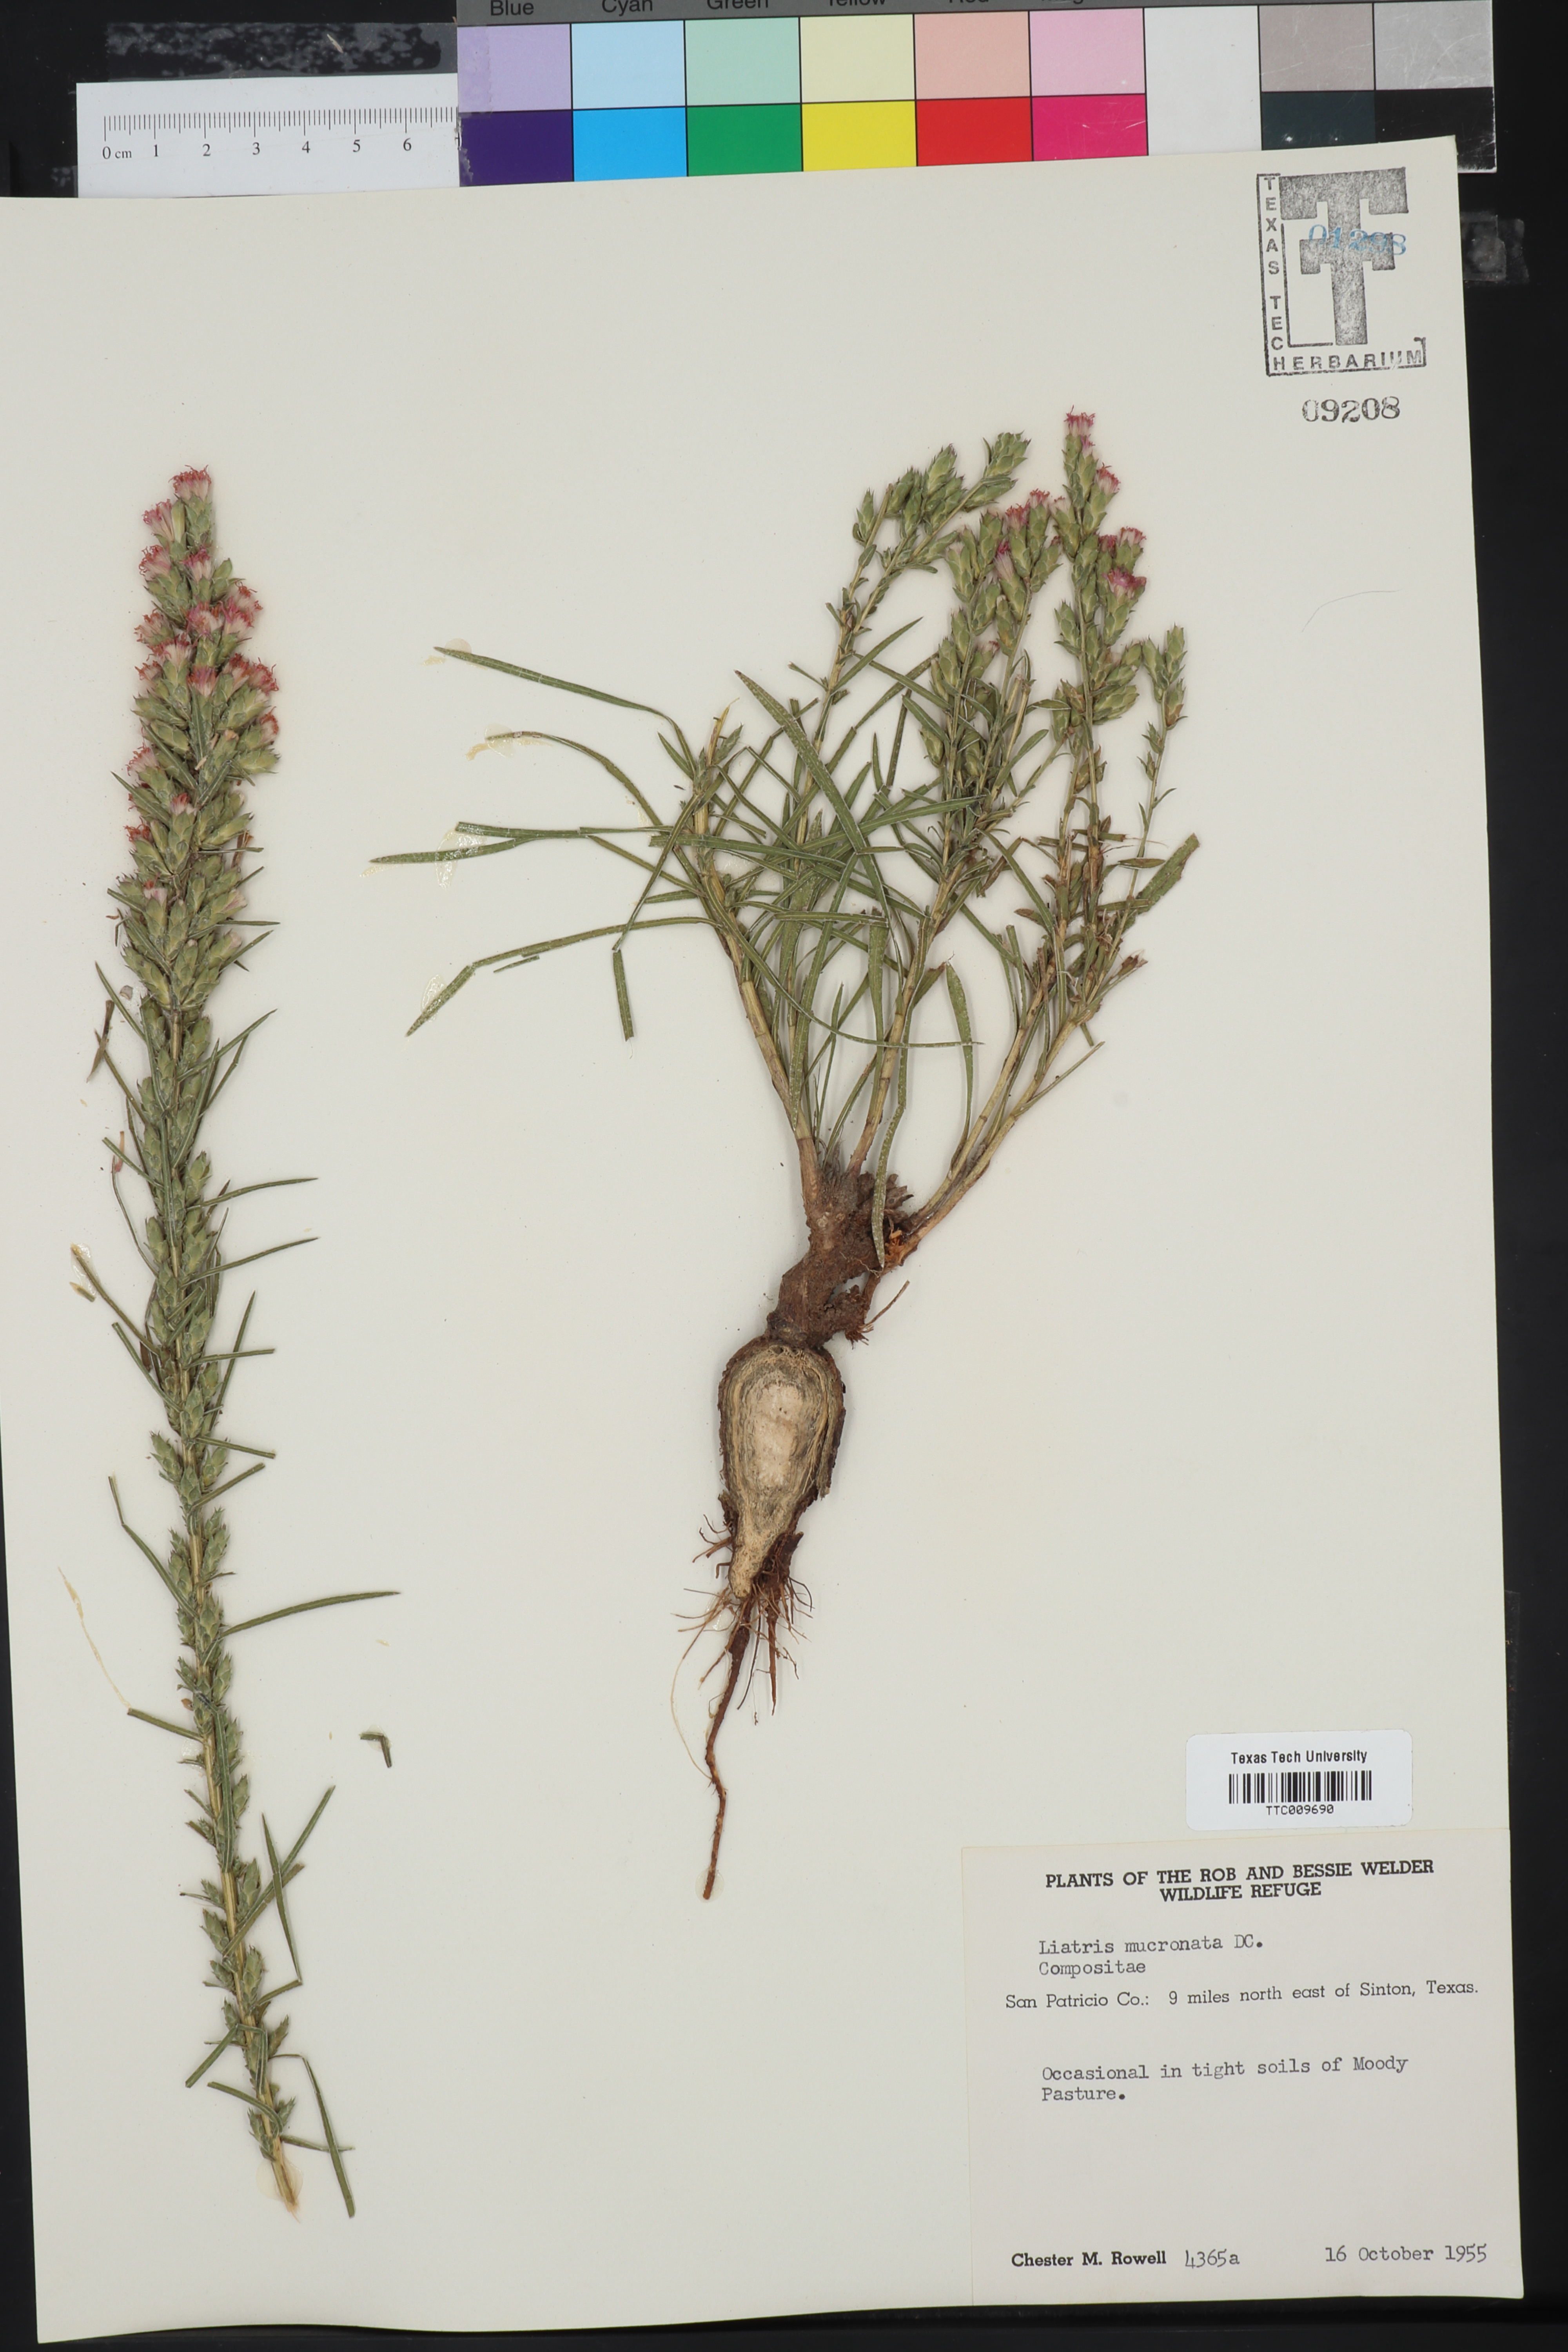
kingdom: Plantae
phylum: Tracheophyta
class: Magnoliopsida
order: Asterales
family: Asteraceae
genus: Liatris
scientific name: Liatris mucronata
